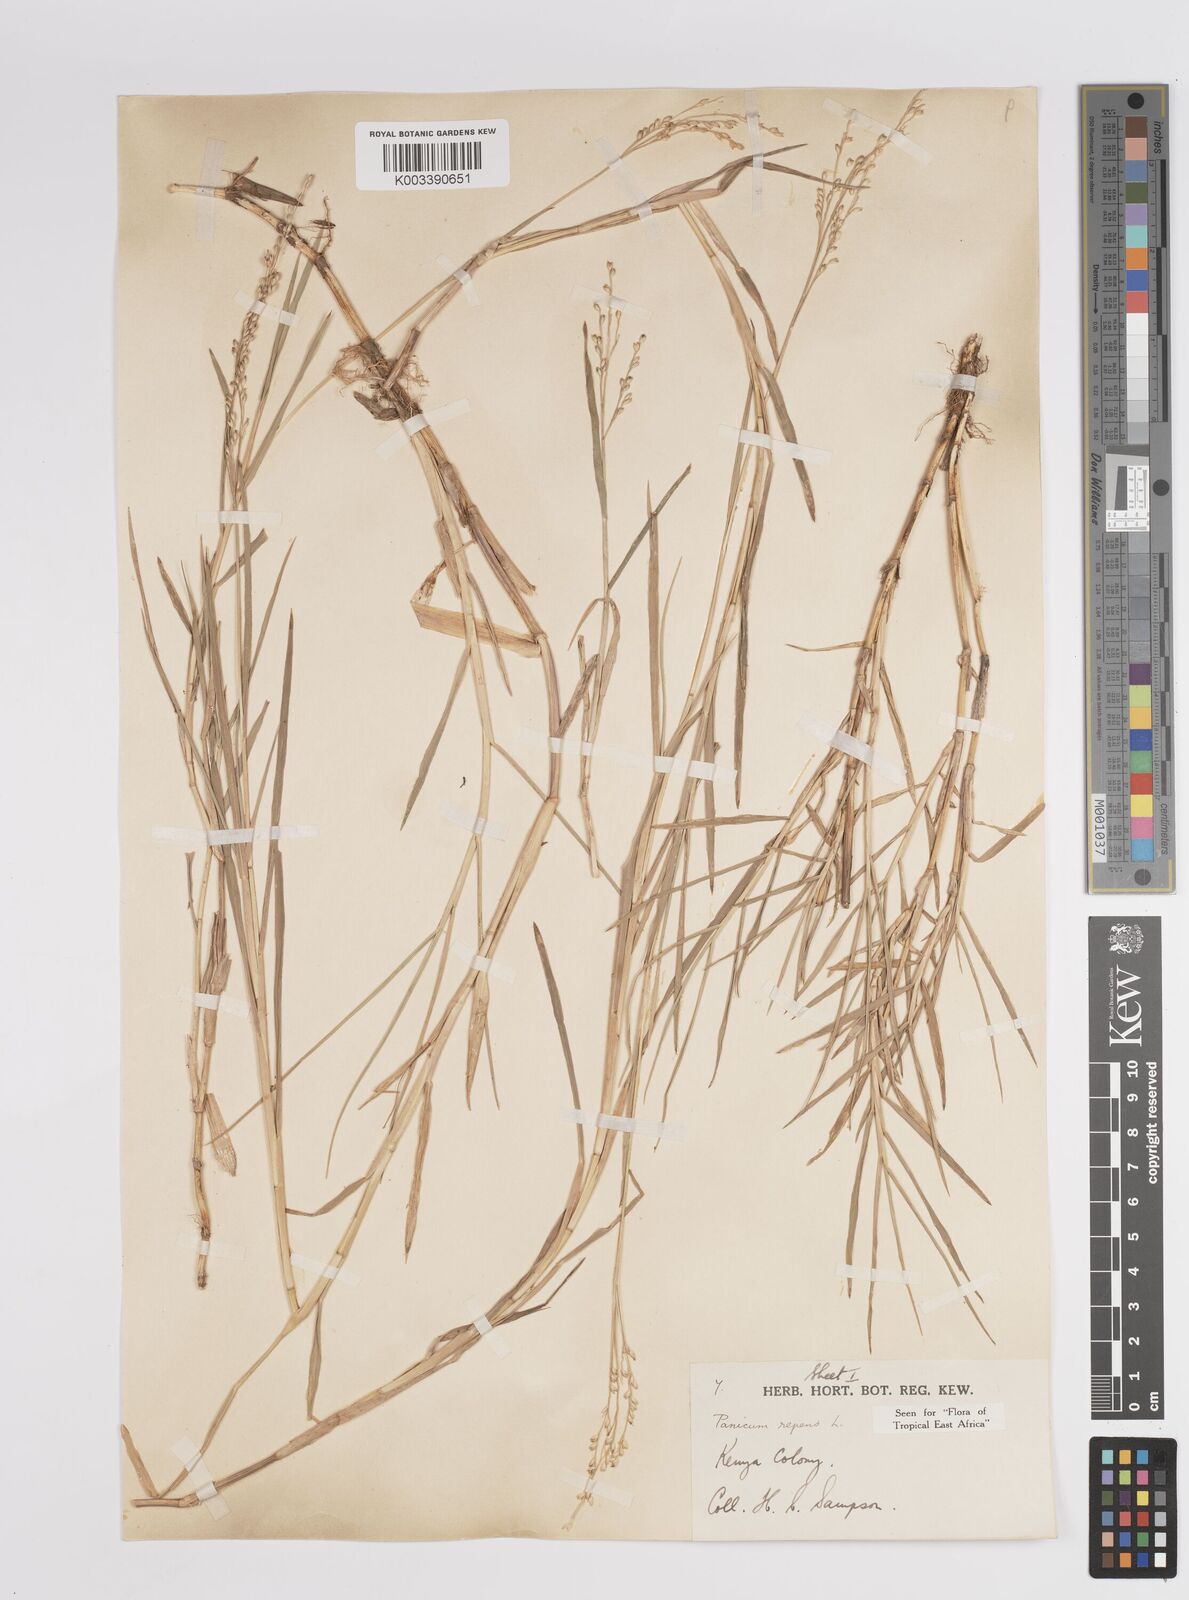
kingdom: Plantae
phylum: Tracheophyta
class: Liliopsida
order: Poales
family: Poaceae
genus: Panicum
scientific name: Panicum repens
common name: Torpedo grass
